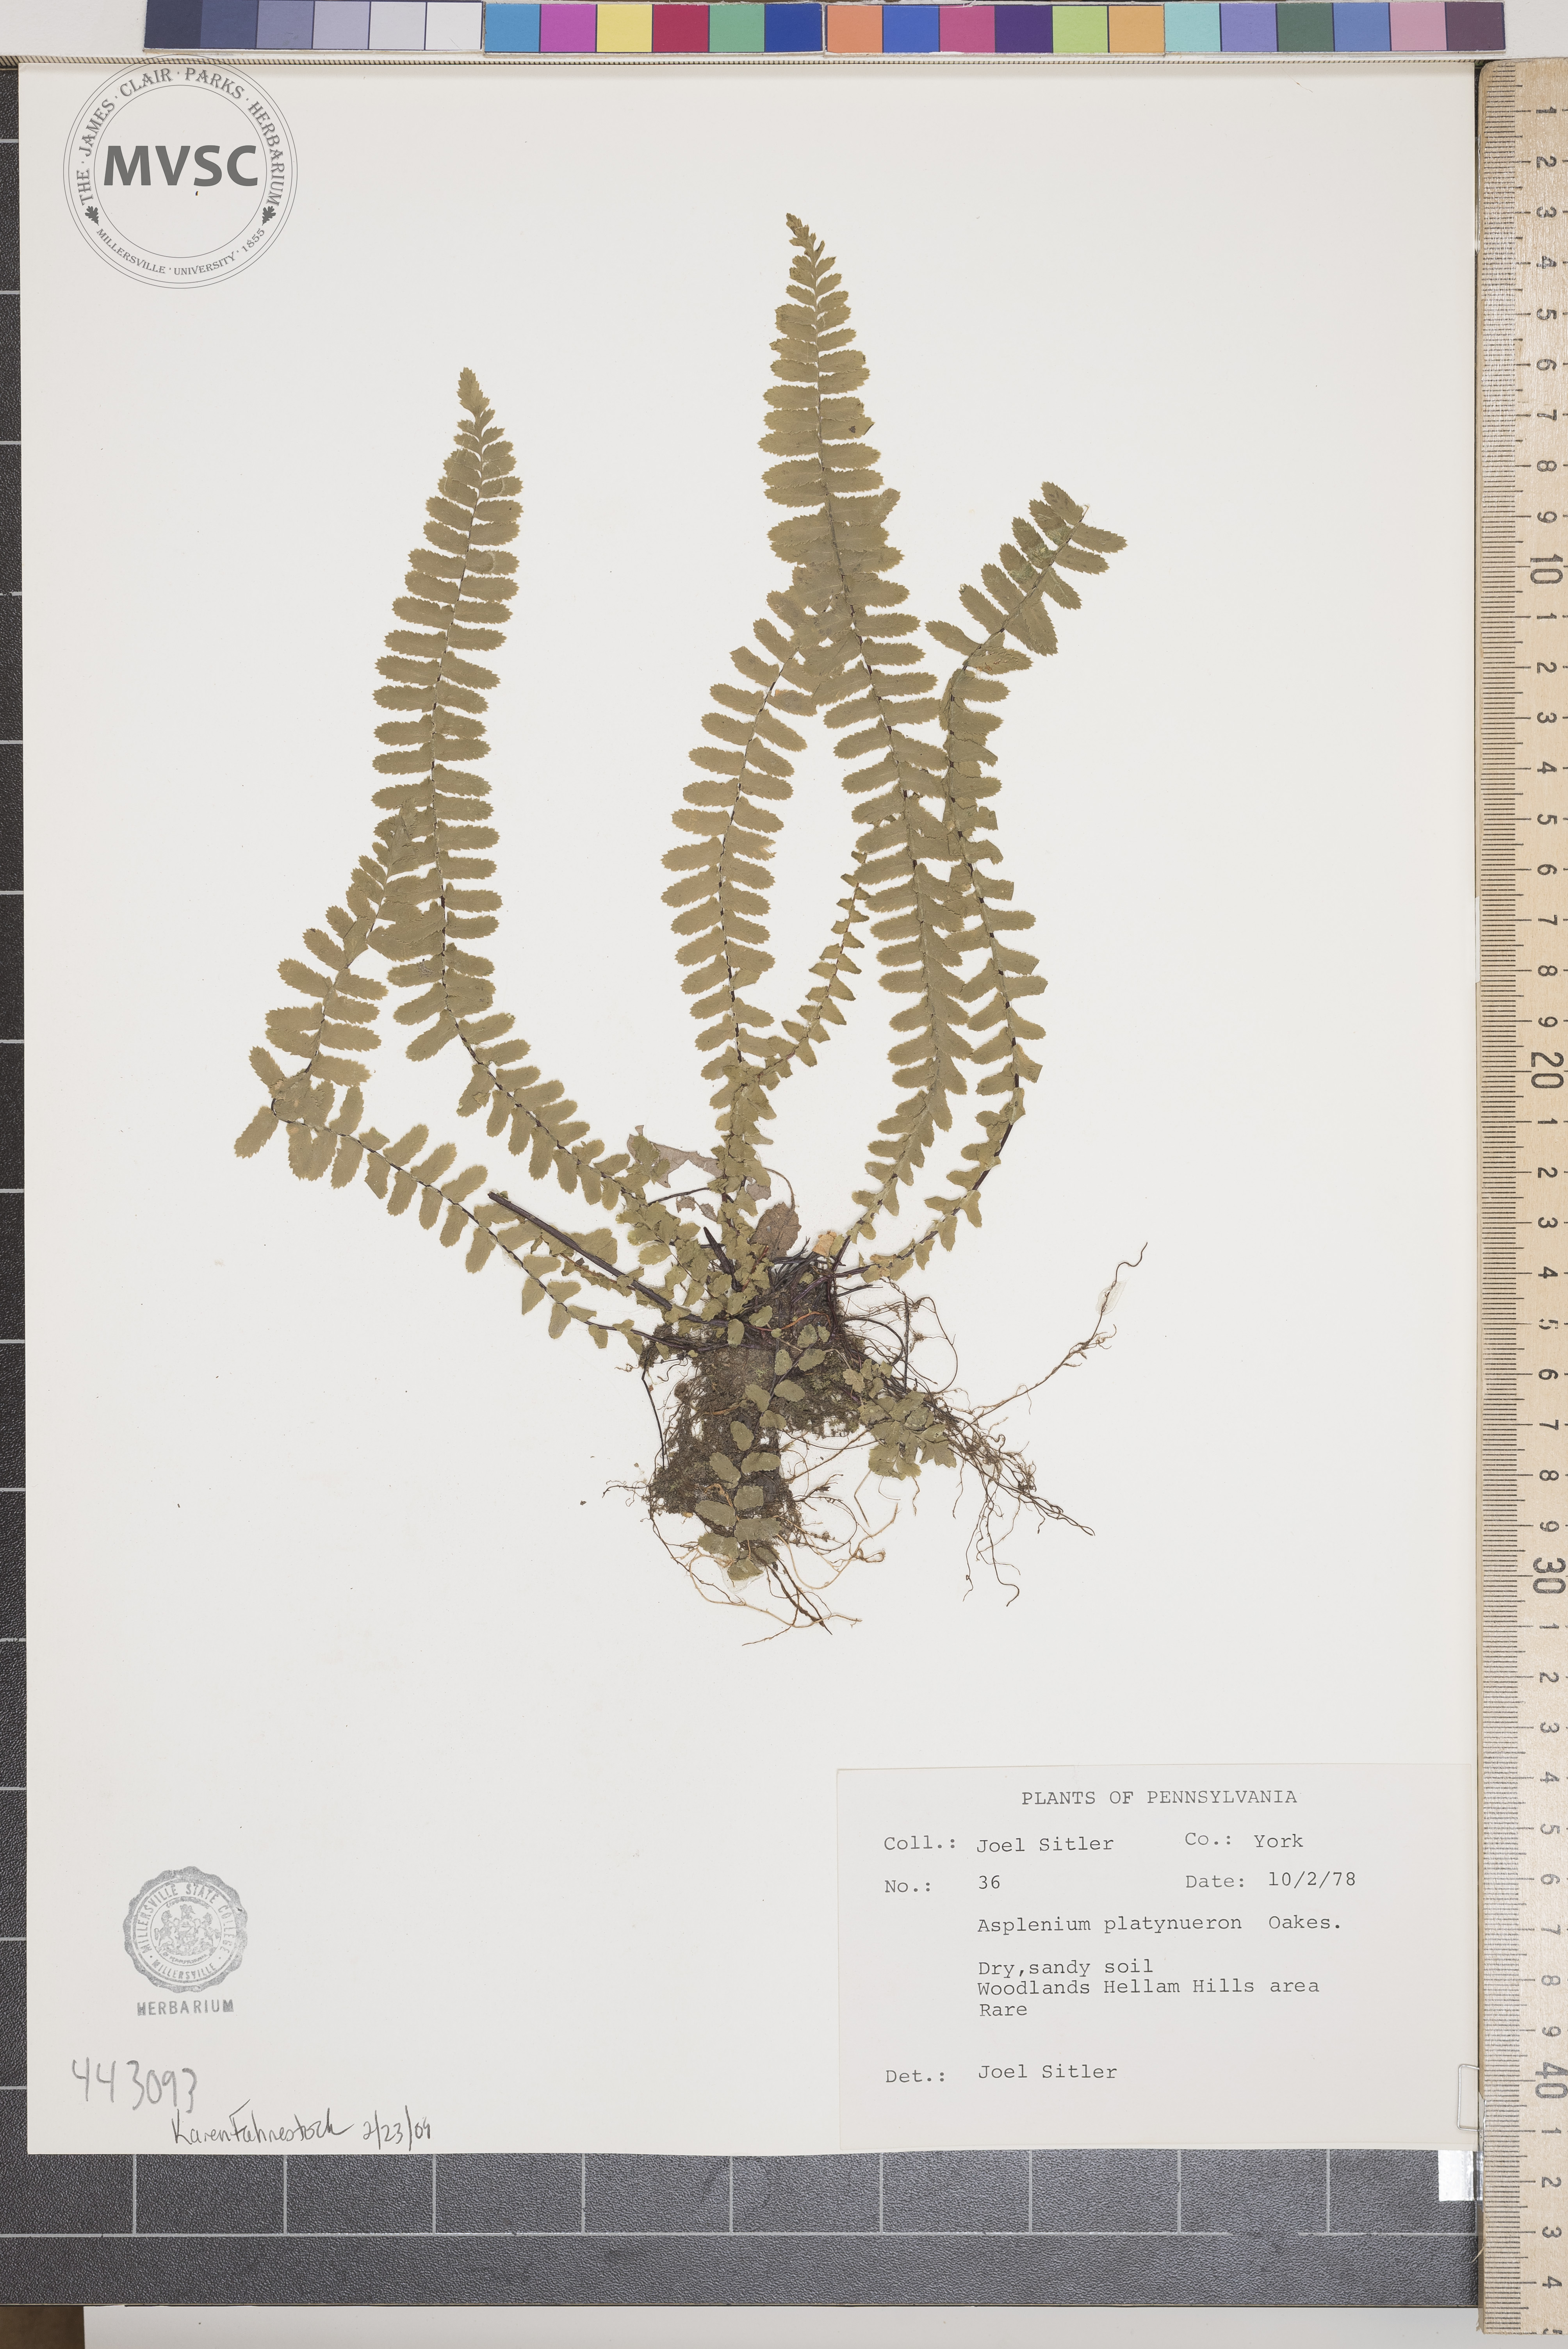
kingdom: Plantae
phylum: Tracheophyta
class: Polypodiopsida
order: Polypodiales
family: Aspleniaceae
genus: Asplenium
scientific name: Asplenium platyneuron
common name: Ebony spleenwort
